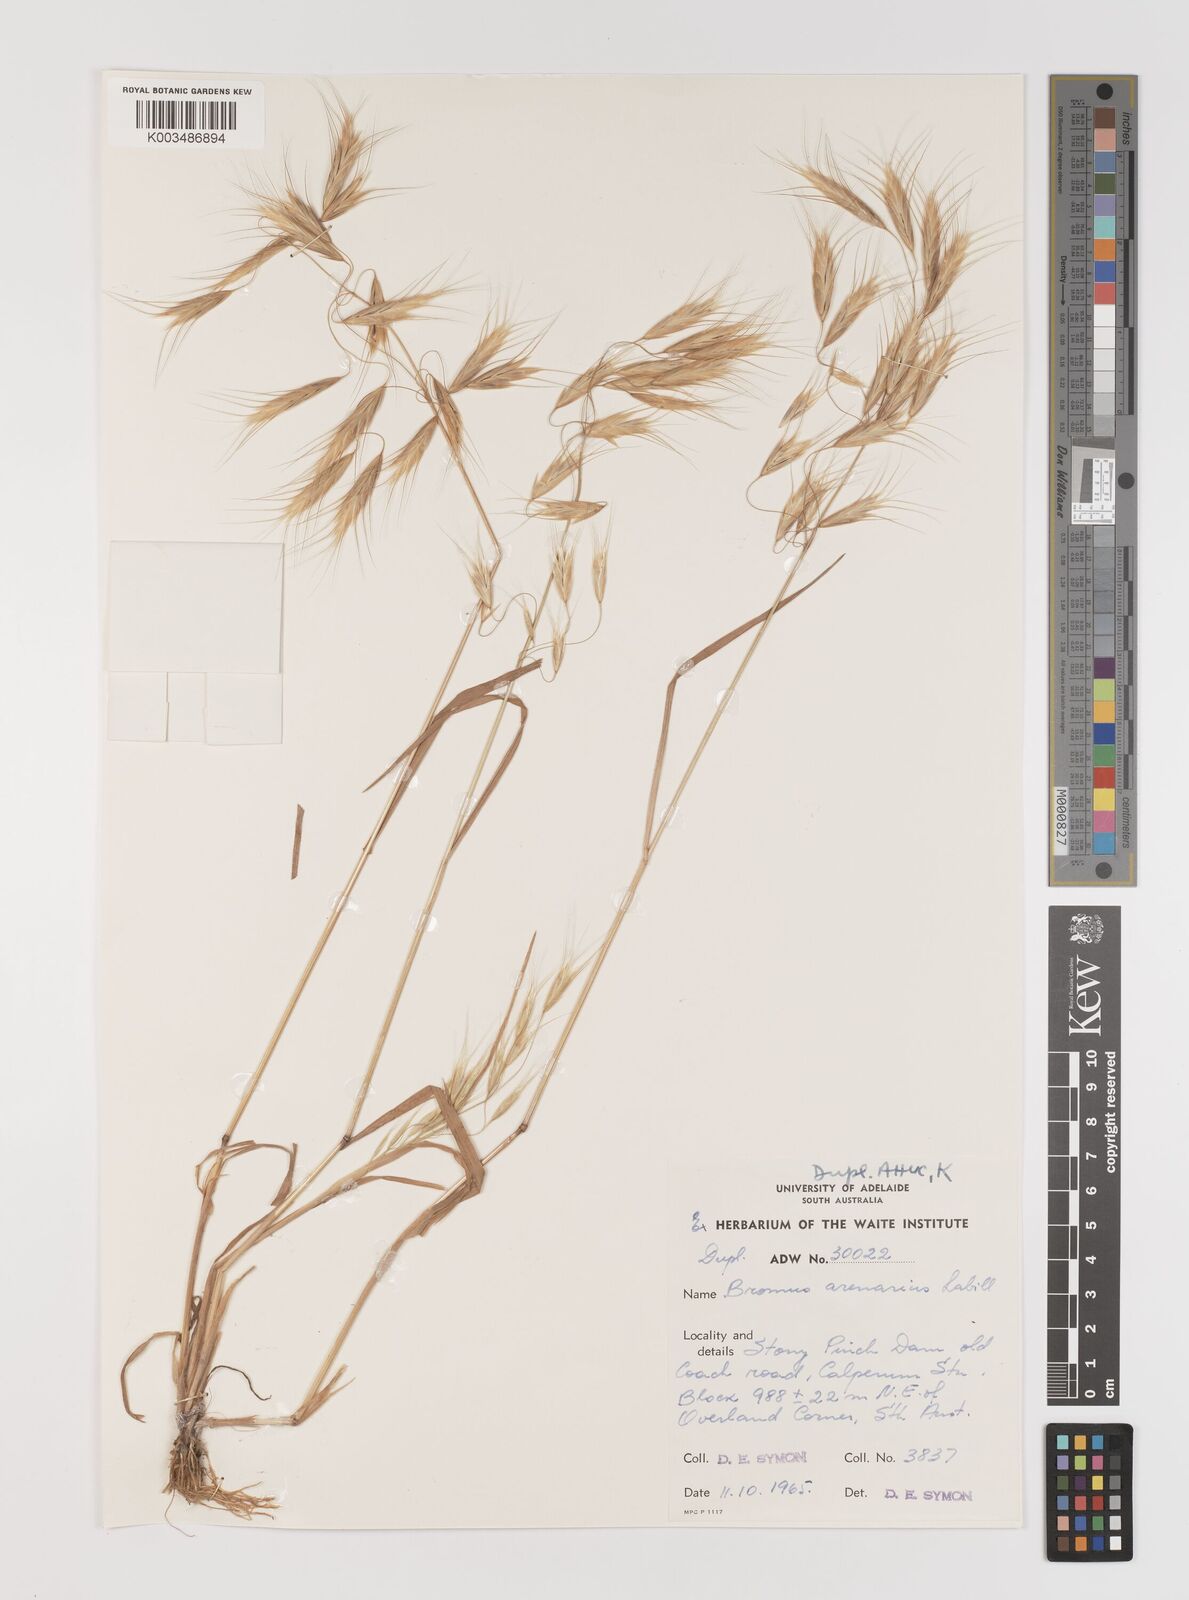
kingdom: Plantae
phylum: Tracheophyta
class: Liliopsida
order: Poales
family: Poaceae
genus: Bromus
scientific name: Bromus arenarius
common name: Australian brome
